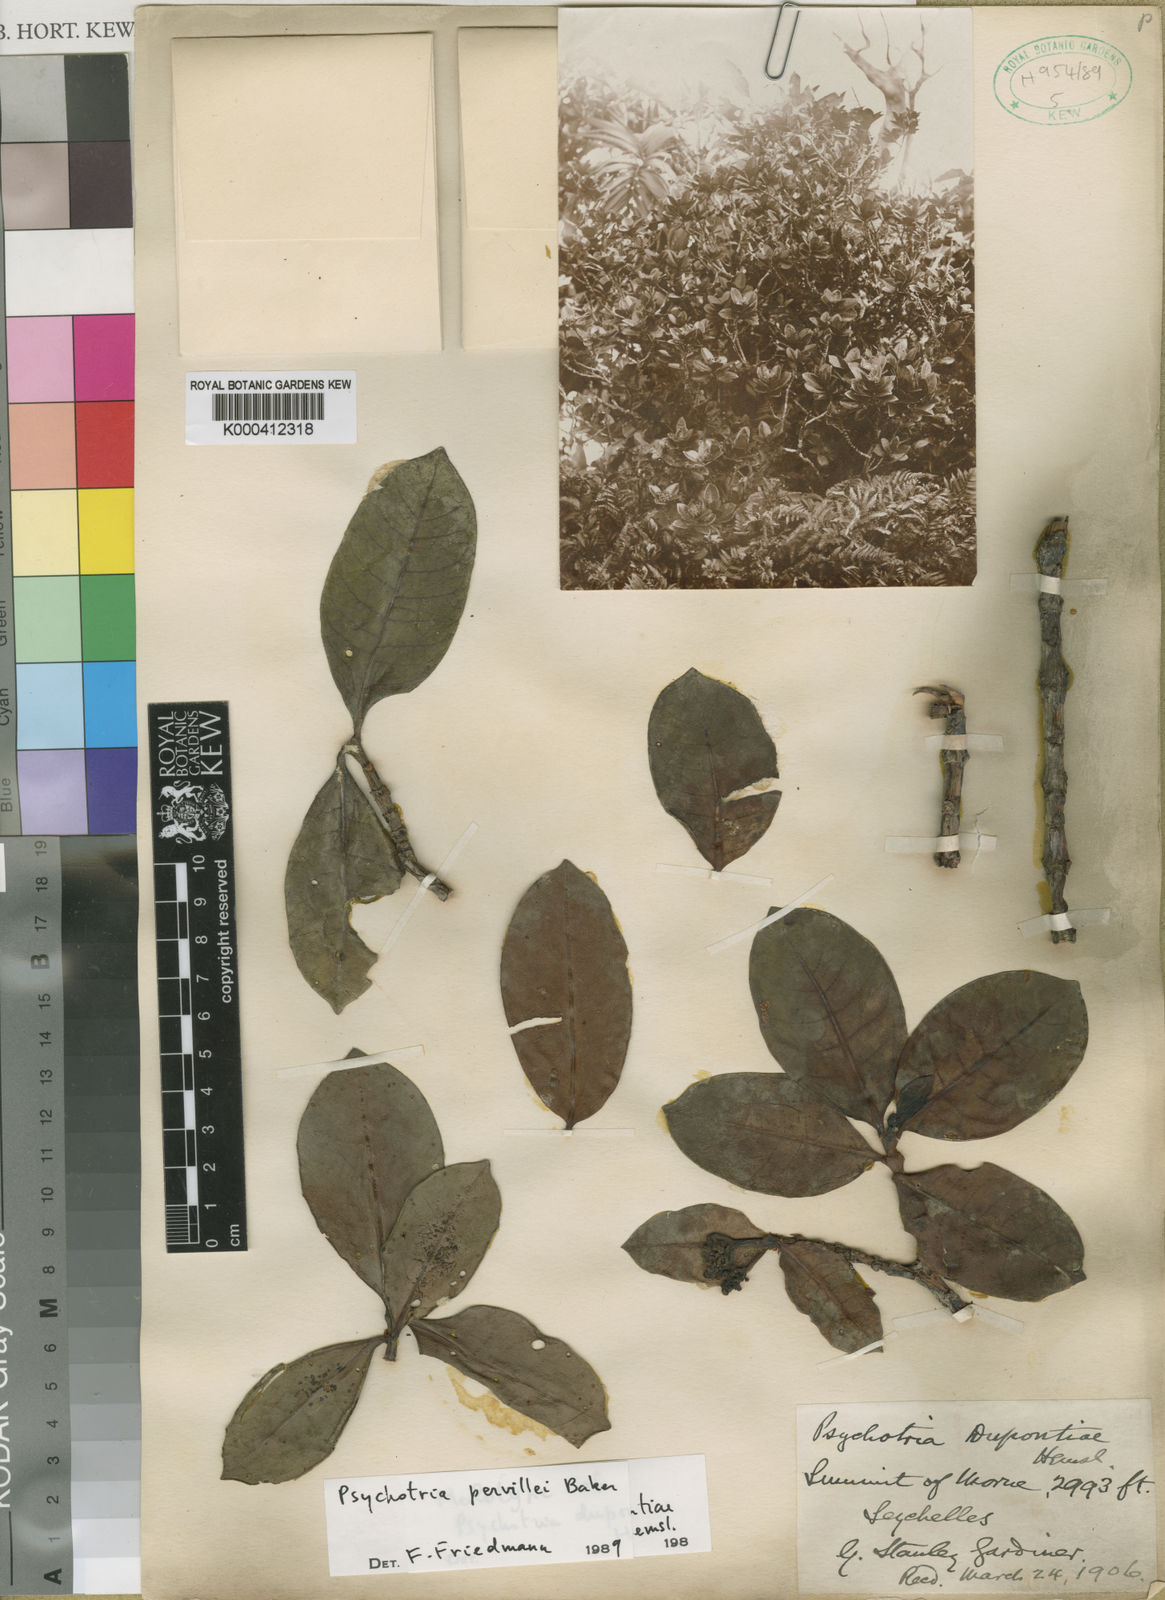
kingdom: Plantae
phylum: Tracheophyta
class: Magnoliopsida
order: Gentianales
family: Rubiaceae
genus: Psychotria
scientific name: Psychotria pervillei
